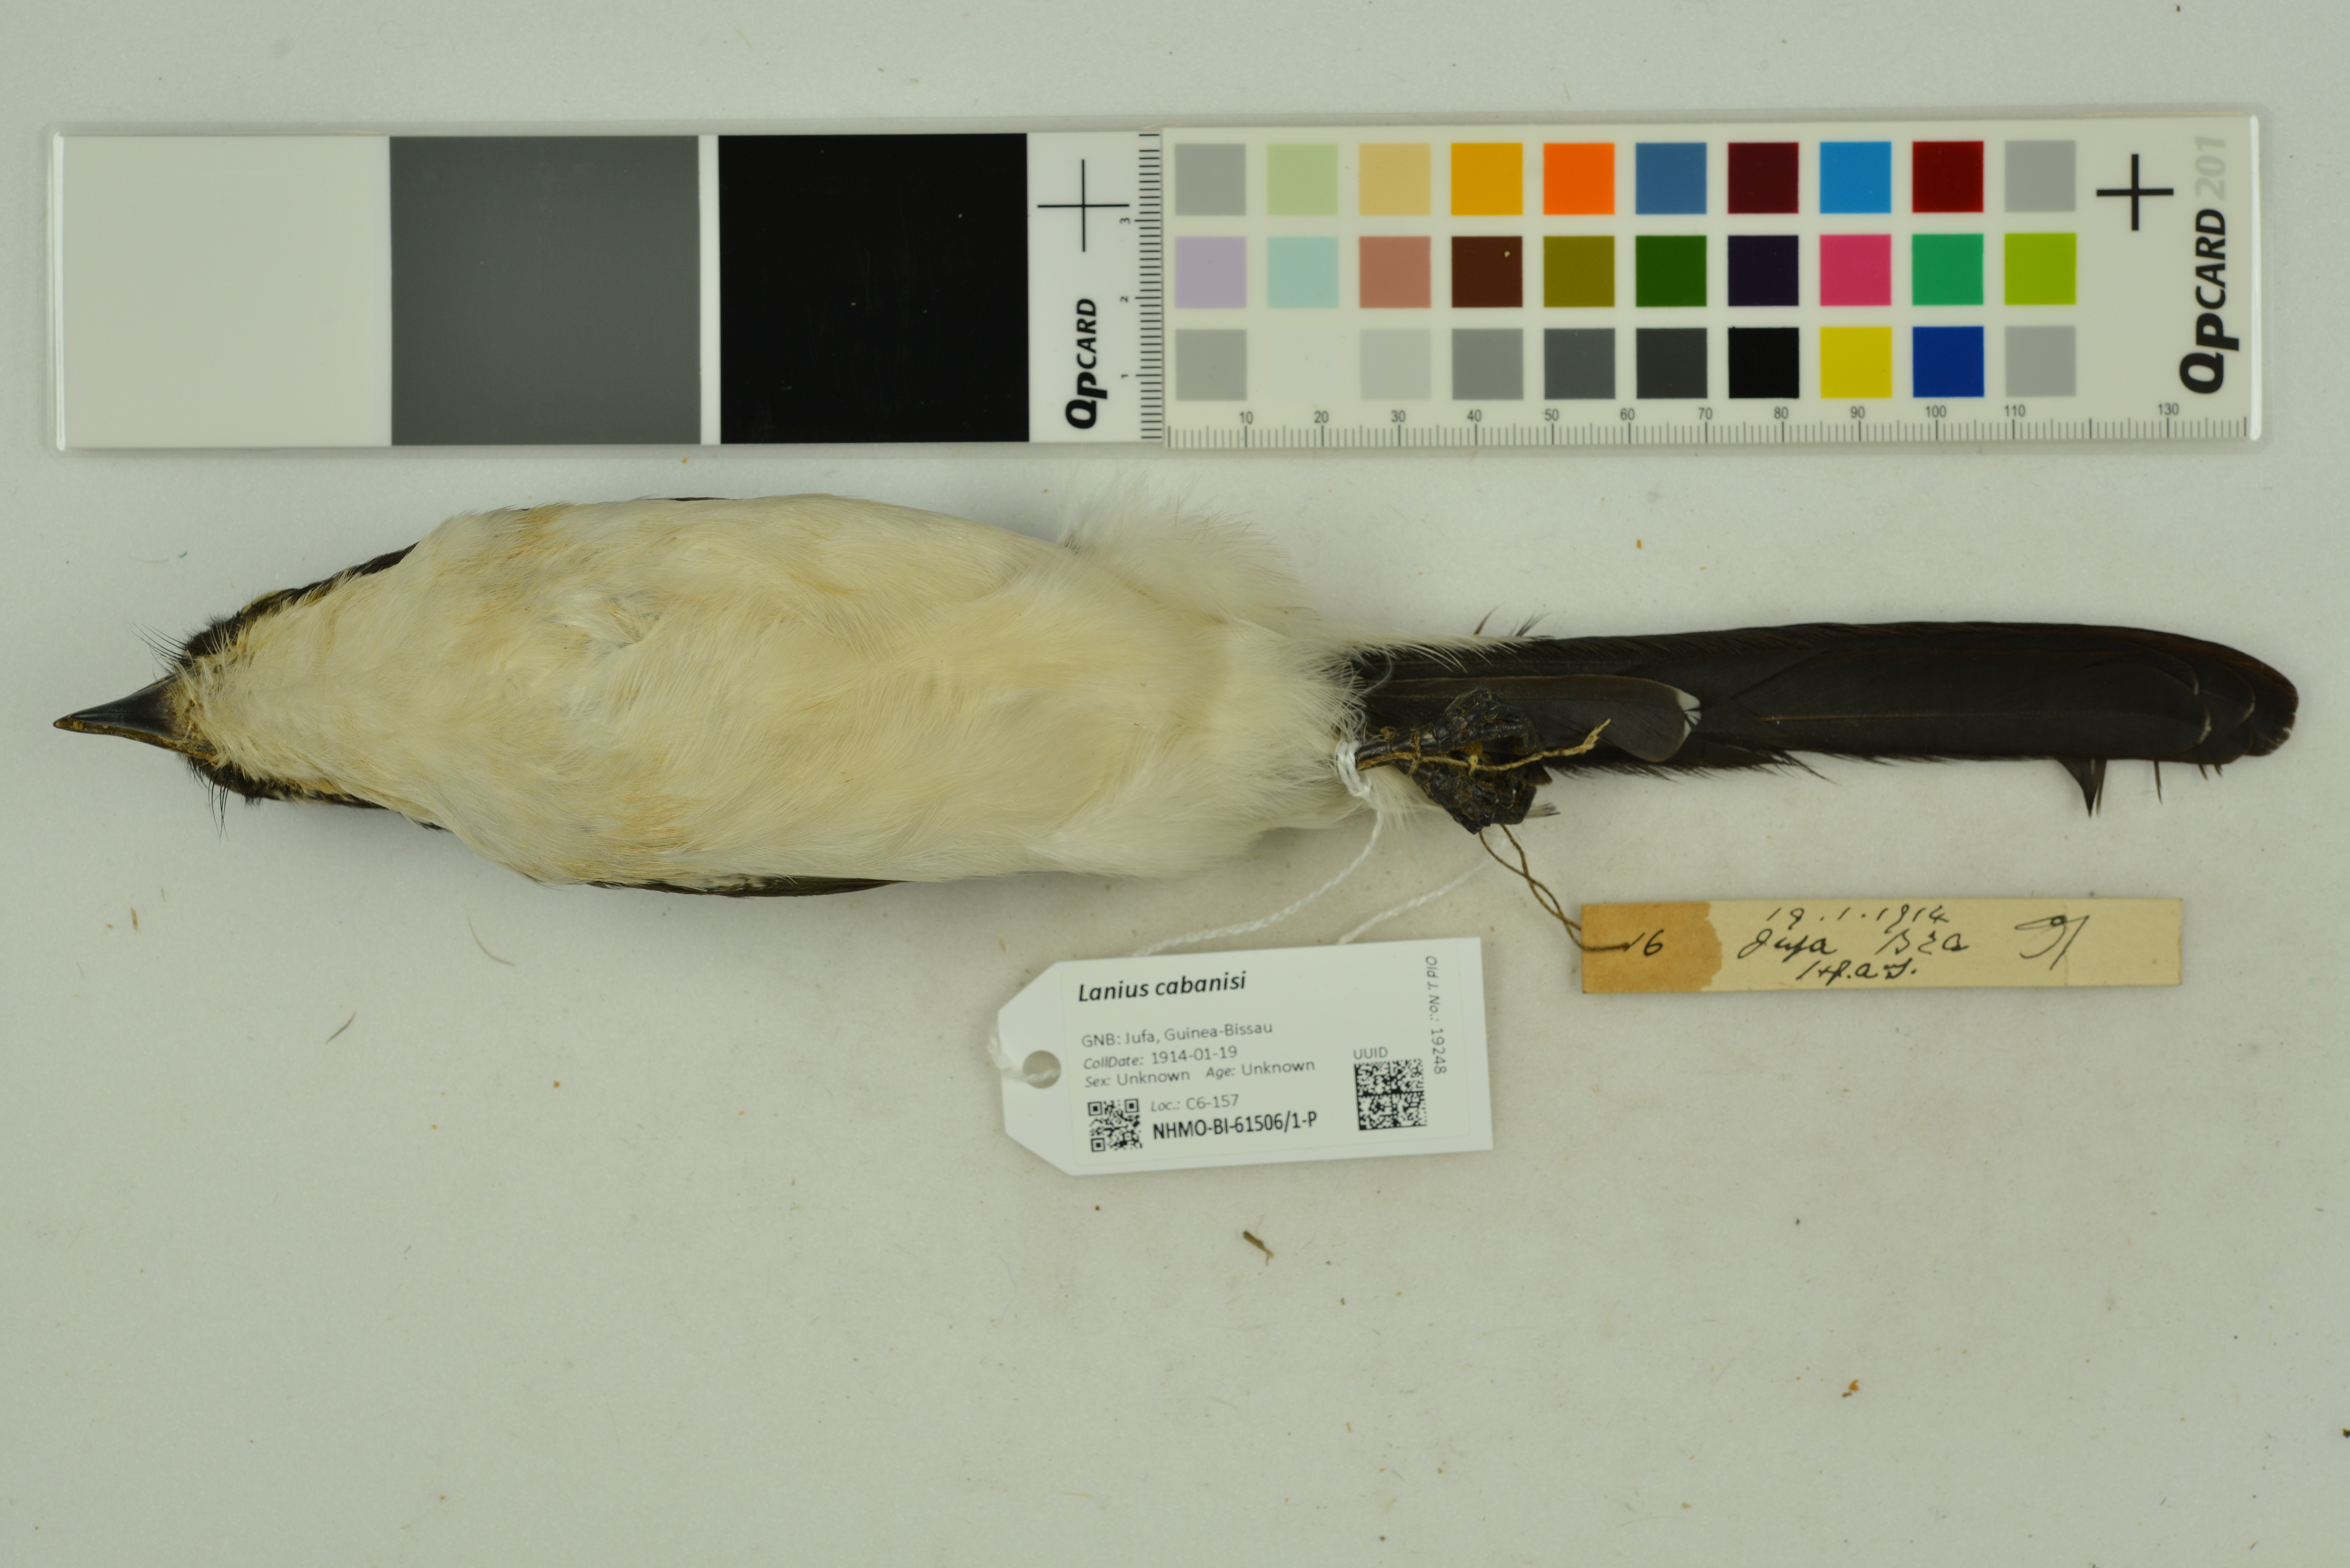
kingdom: Animalia
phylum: Chordata
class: Aves
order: Passeriformes
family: Laniidae
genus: Lanius
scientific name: Lanius cabanisi
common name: Long-tailed fiscal
